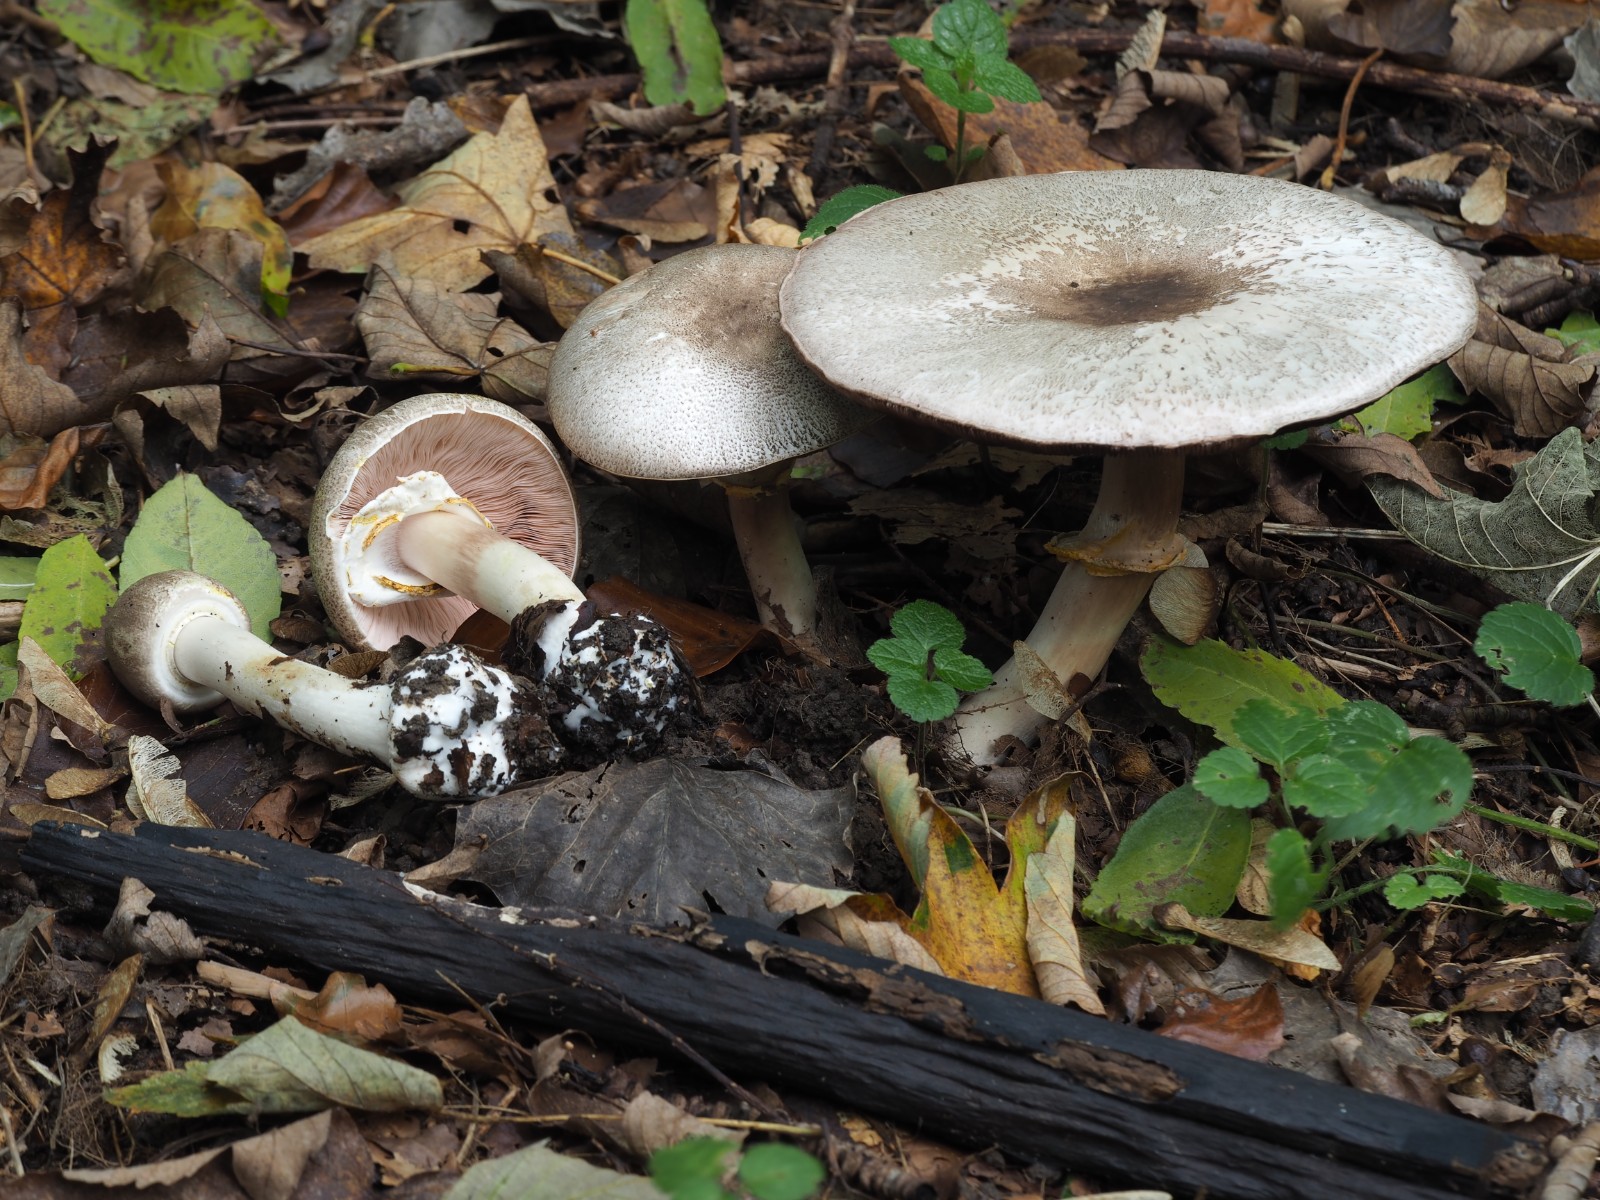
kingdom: Fungi
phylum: Basidiomycota
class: Agaricomycetes
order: Agaricales
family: Agaricaceae
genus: Agaricus
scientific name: Agaricus moelleri
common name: perlehøne-champignon
